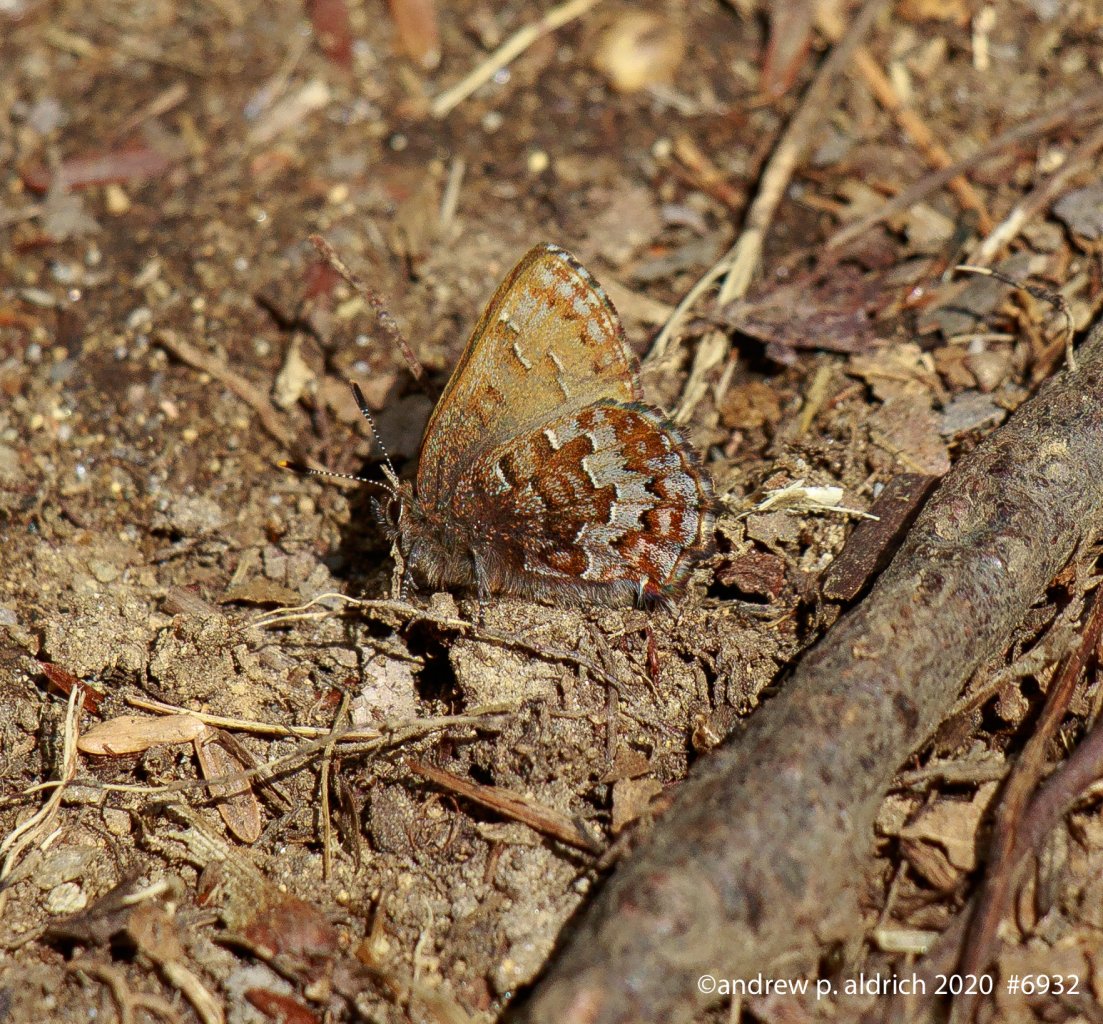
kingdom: Animalia
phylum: Arthropoda
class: Insecta
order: Lepidoptera
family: Lycaenidae
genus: Incisalia
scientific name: Incisalia niphon
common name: Eastern Pine Elfin
